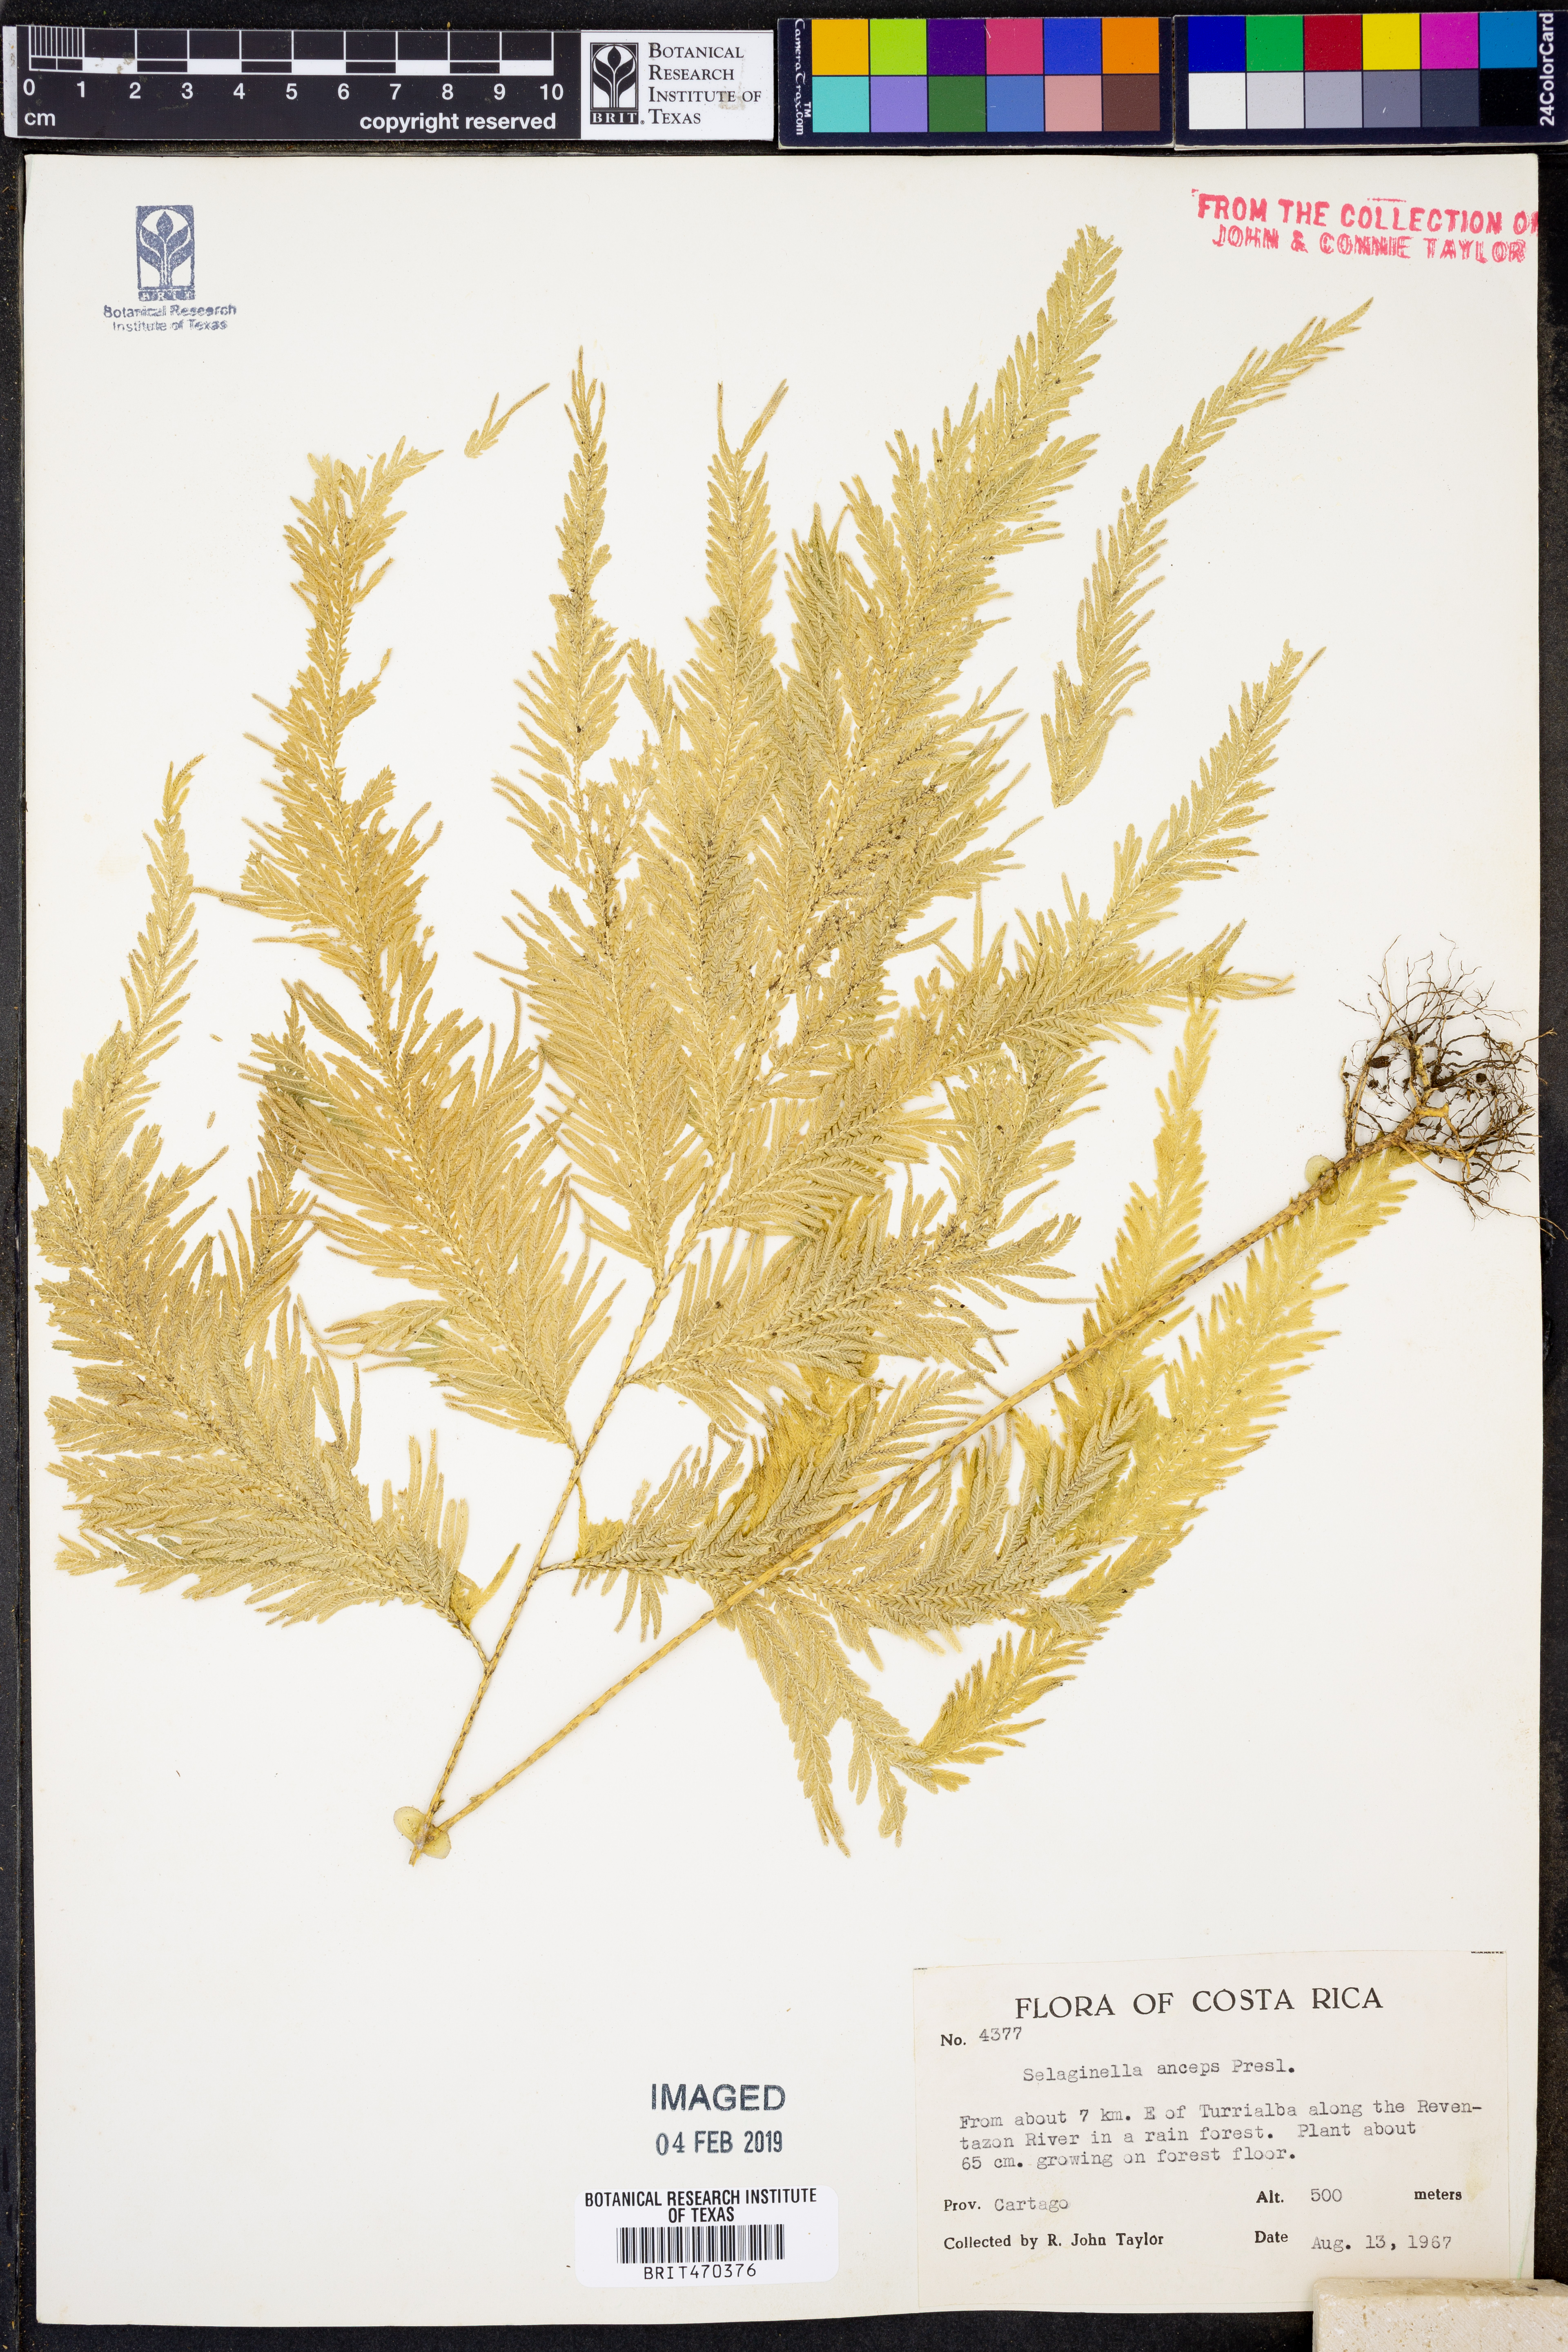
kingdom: Plantae
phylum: Tracheophyta
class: Lycopodiopsida
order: Selaginellales
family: Selaginellaceae
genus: Selaginella
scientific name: Selaginella anceps
